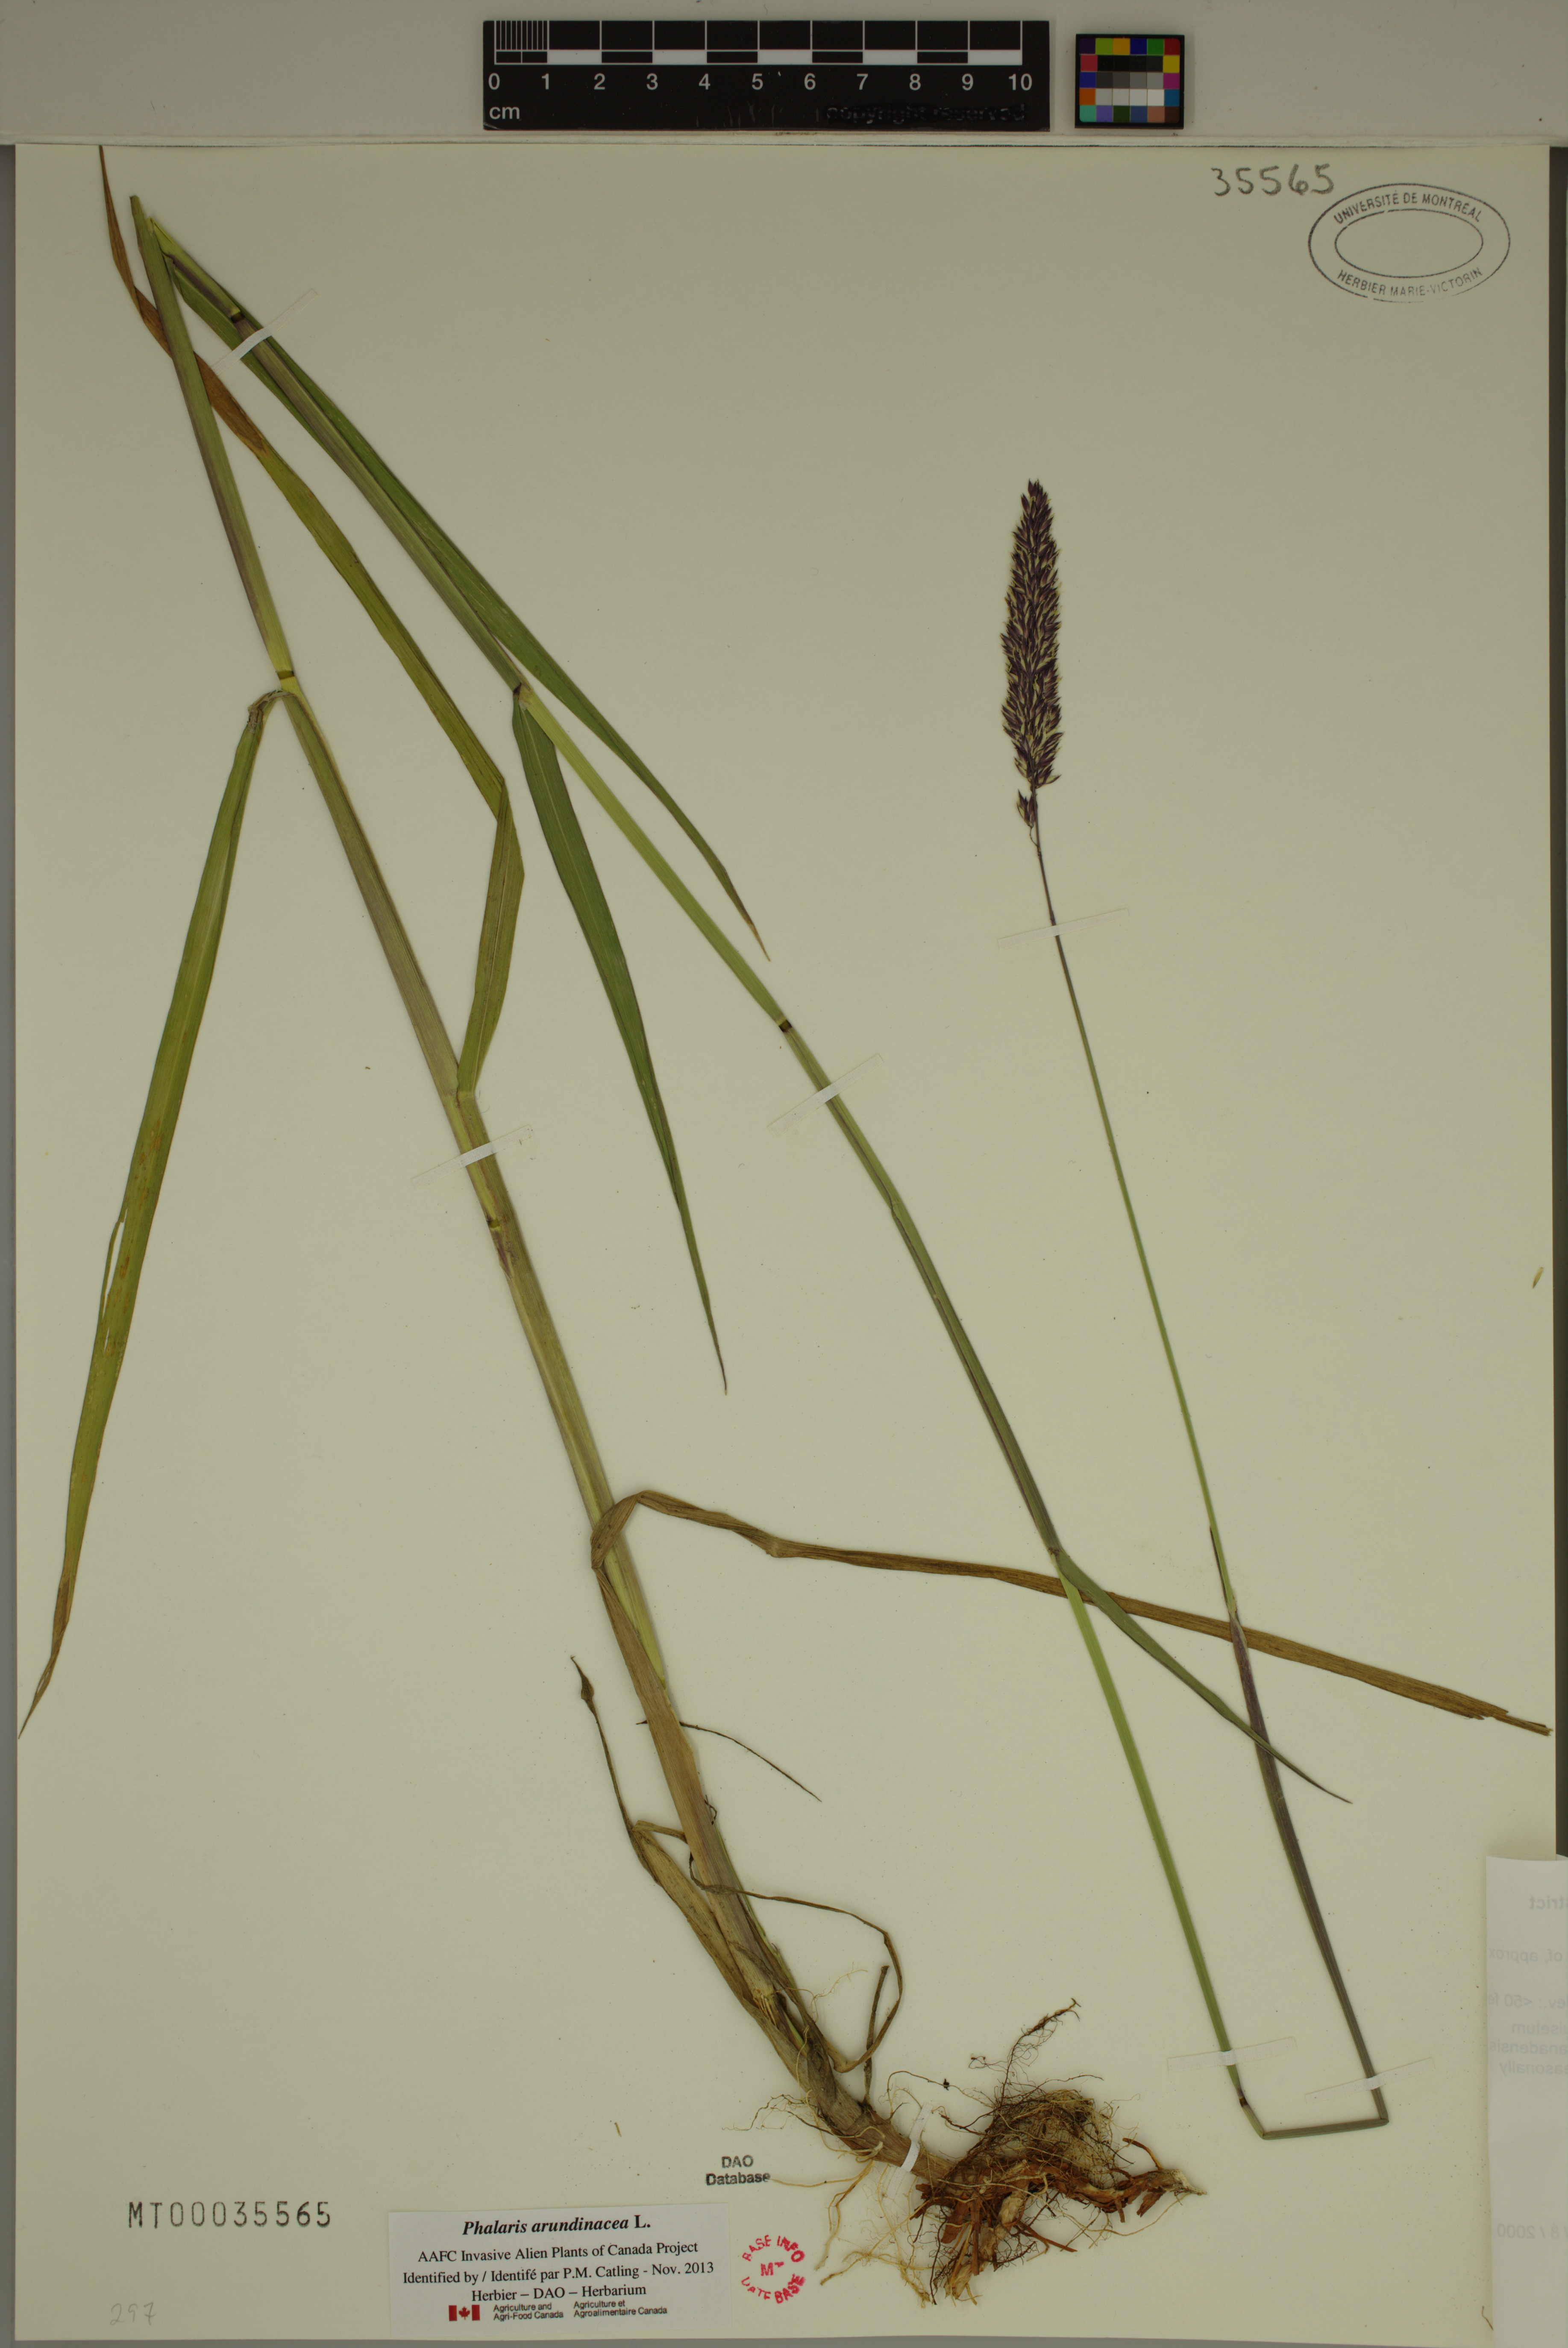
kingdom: Plantae
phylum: Tracheophyta
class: Liliopsida
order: Poales
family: Poaceae
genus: Phalaris
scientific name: Phalaris arundinacea
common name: Reed canary-grass
